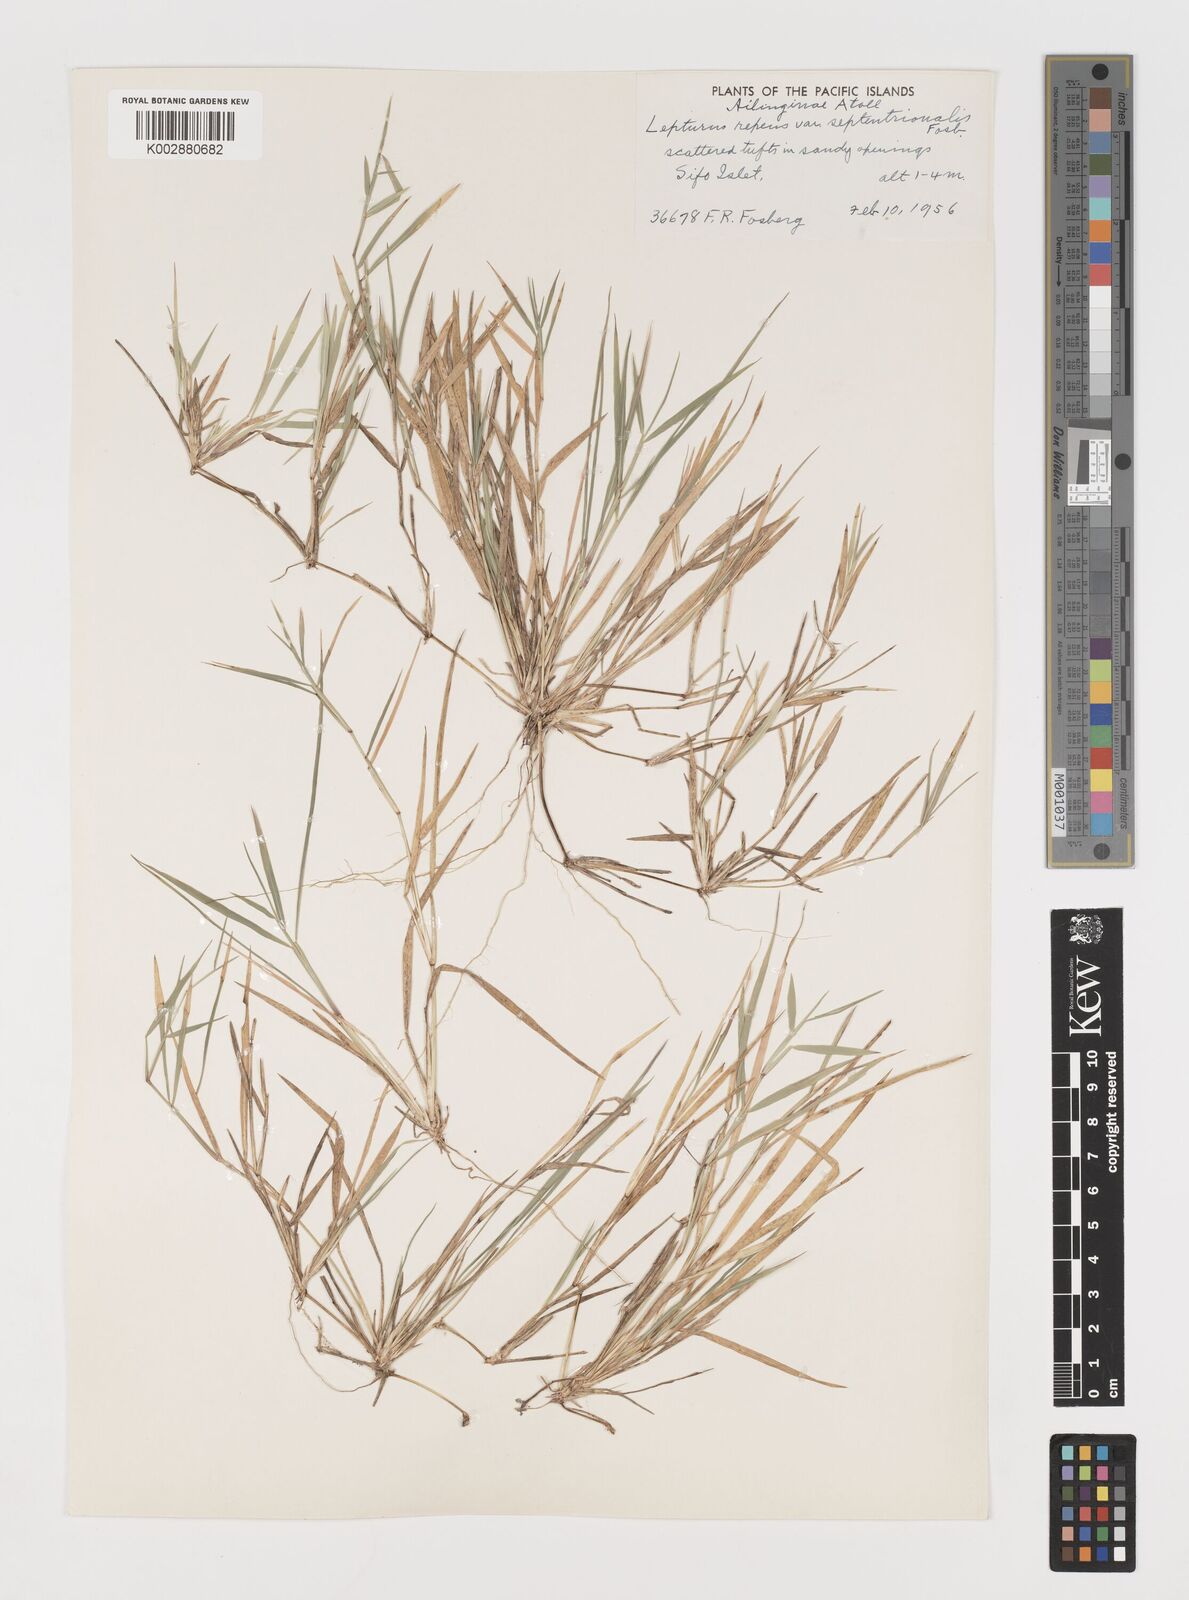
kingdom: Plantae
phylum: Tracheophyta
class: Liliopsida
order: Poales
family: Poaceae
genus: Lepturus
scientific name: Lepturus repens
